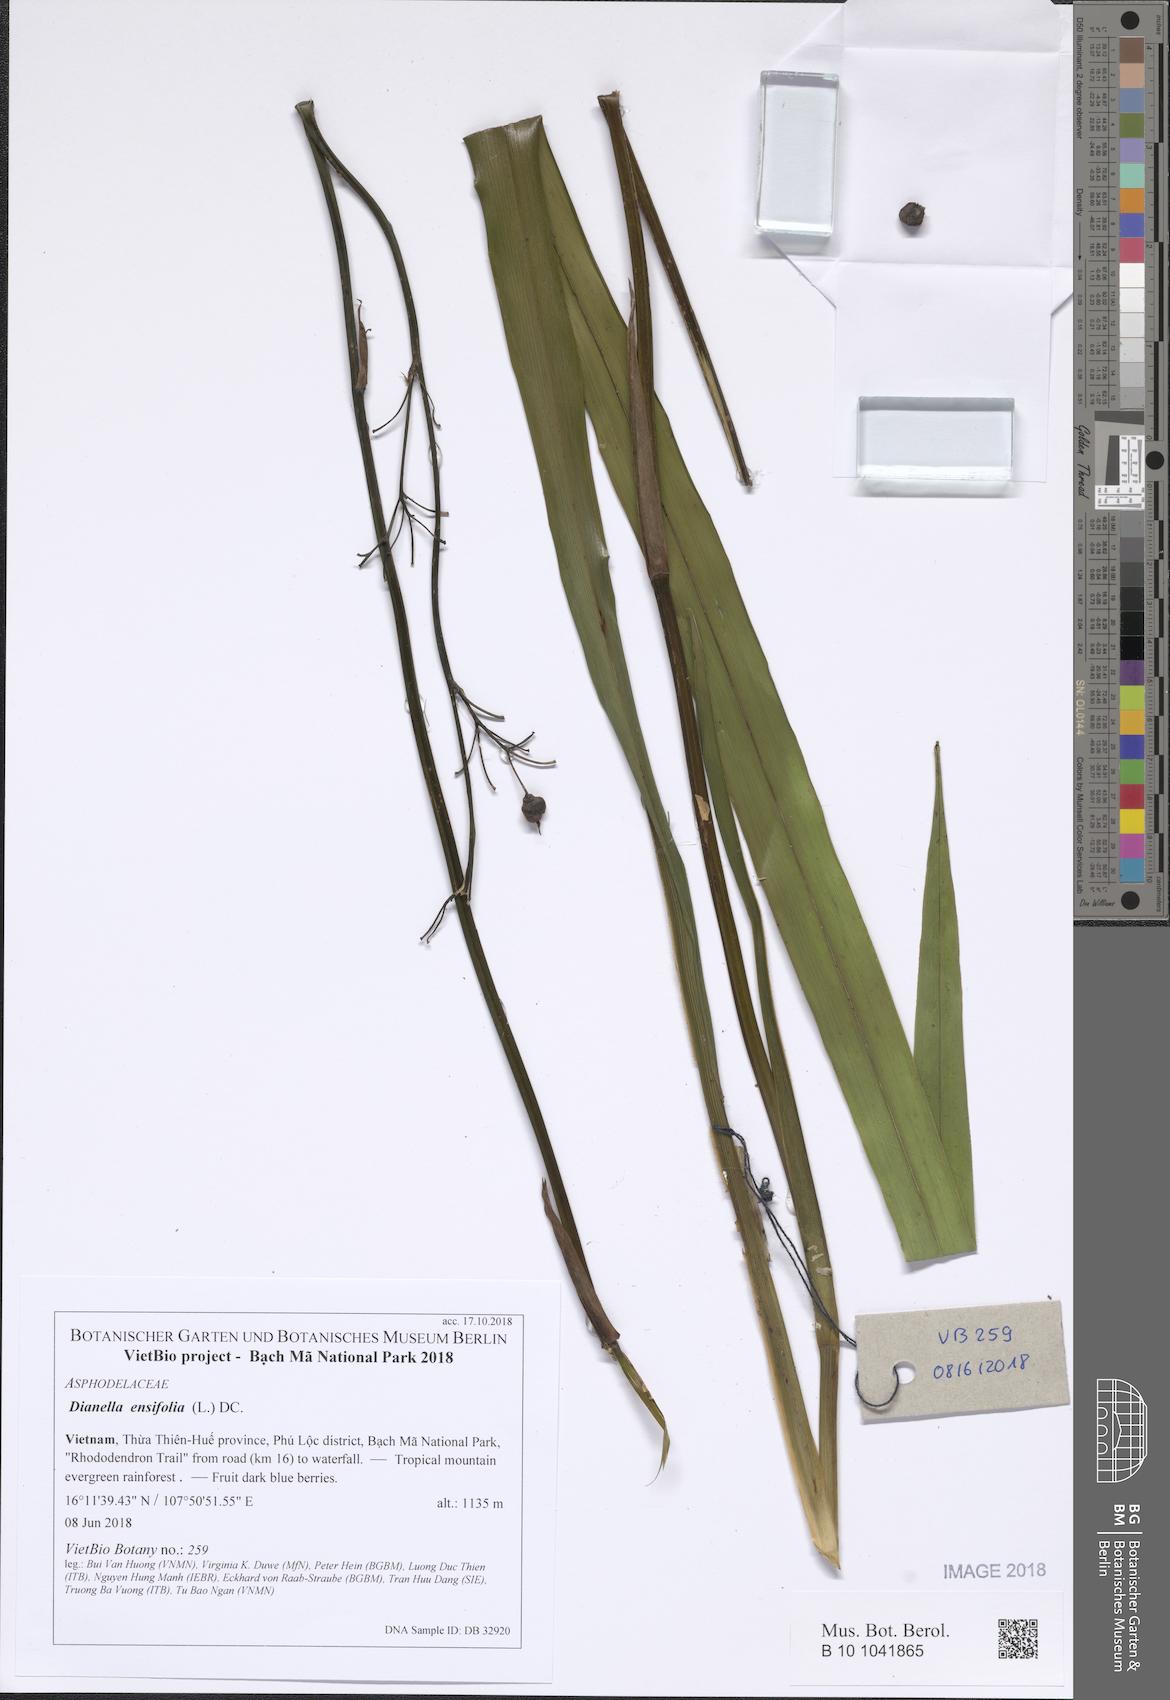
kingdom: Plantae
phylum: Tracheophyta
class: Liliopsida
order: Asparagales
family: Asphodelaceae
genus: Dianella
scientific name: Dianella ensifolia
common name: New zealand lilyplant
